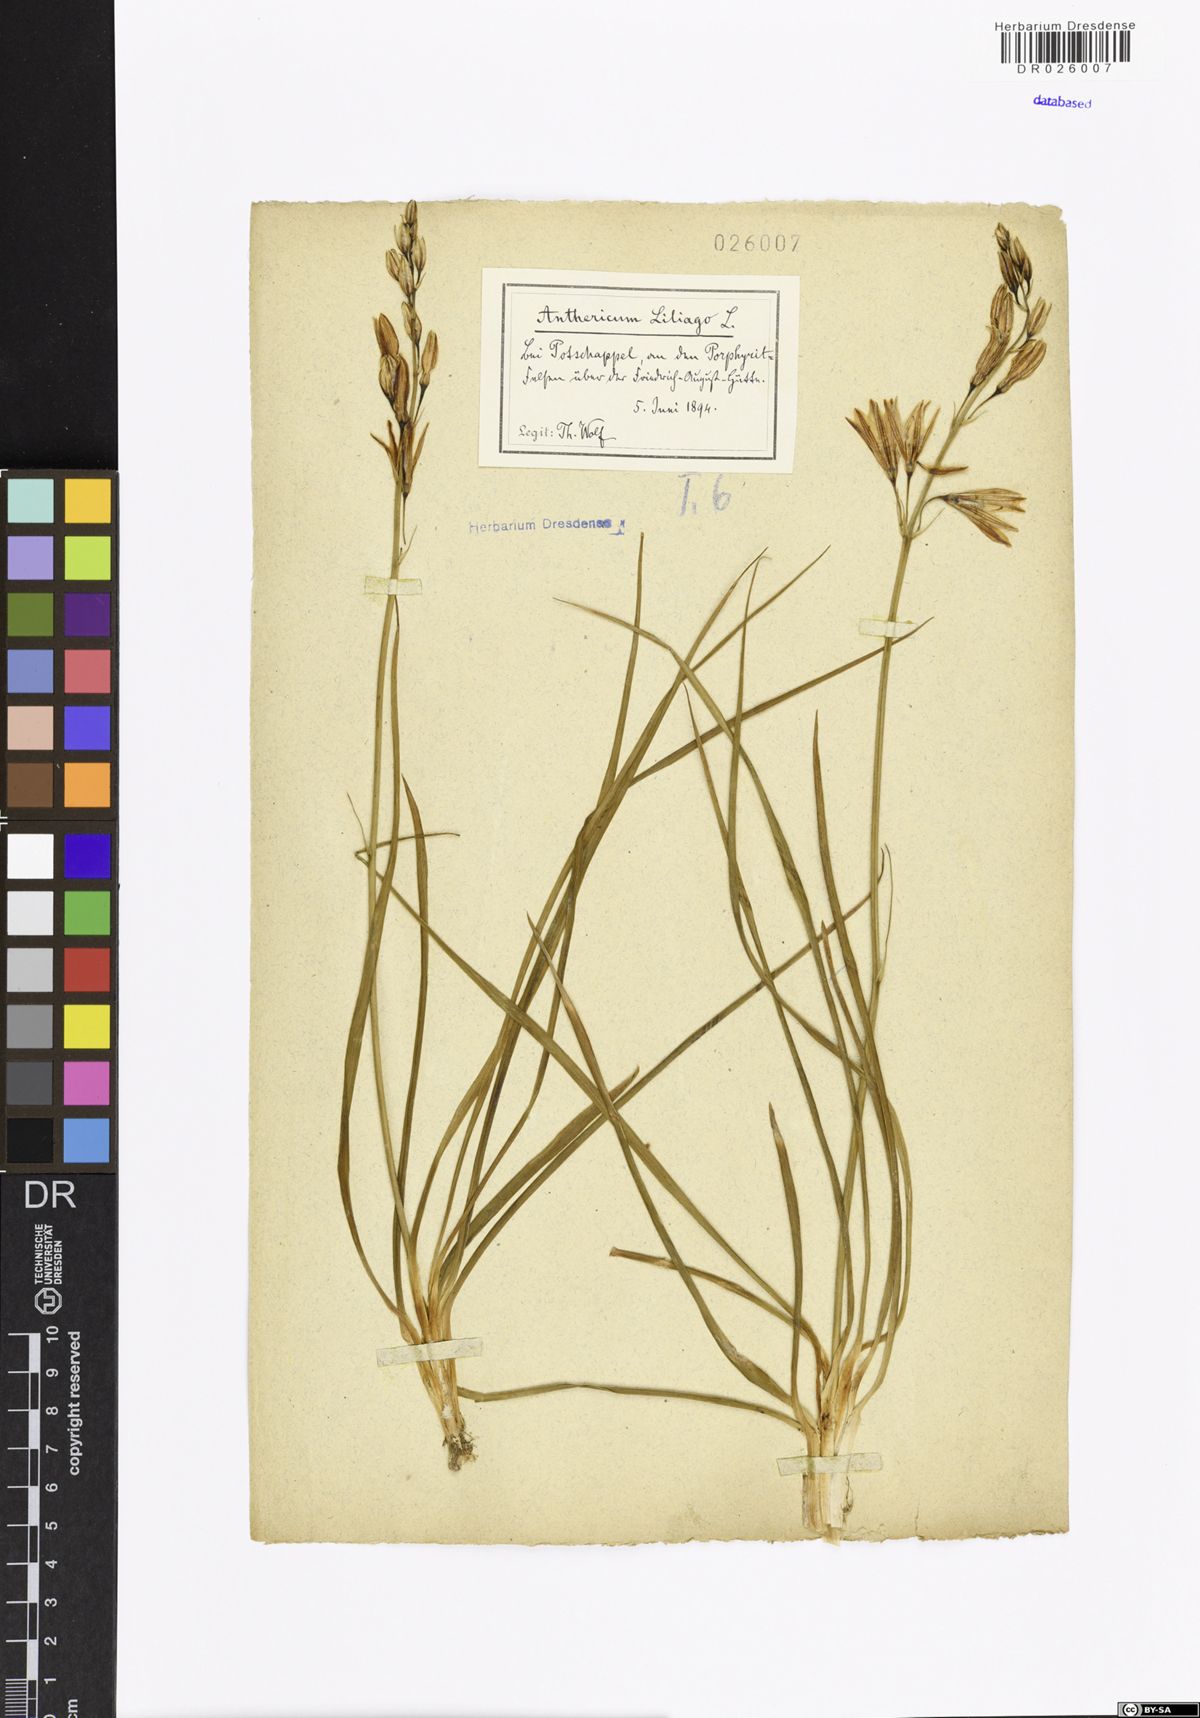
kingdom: Plantae
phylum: Tracheophyta
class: Liliopsida
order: Asparagales
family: Asparagaceae
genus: Anthericum
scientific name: Anthericum liliago
